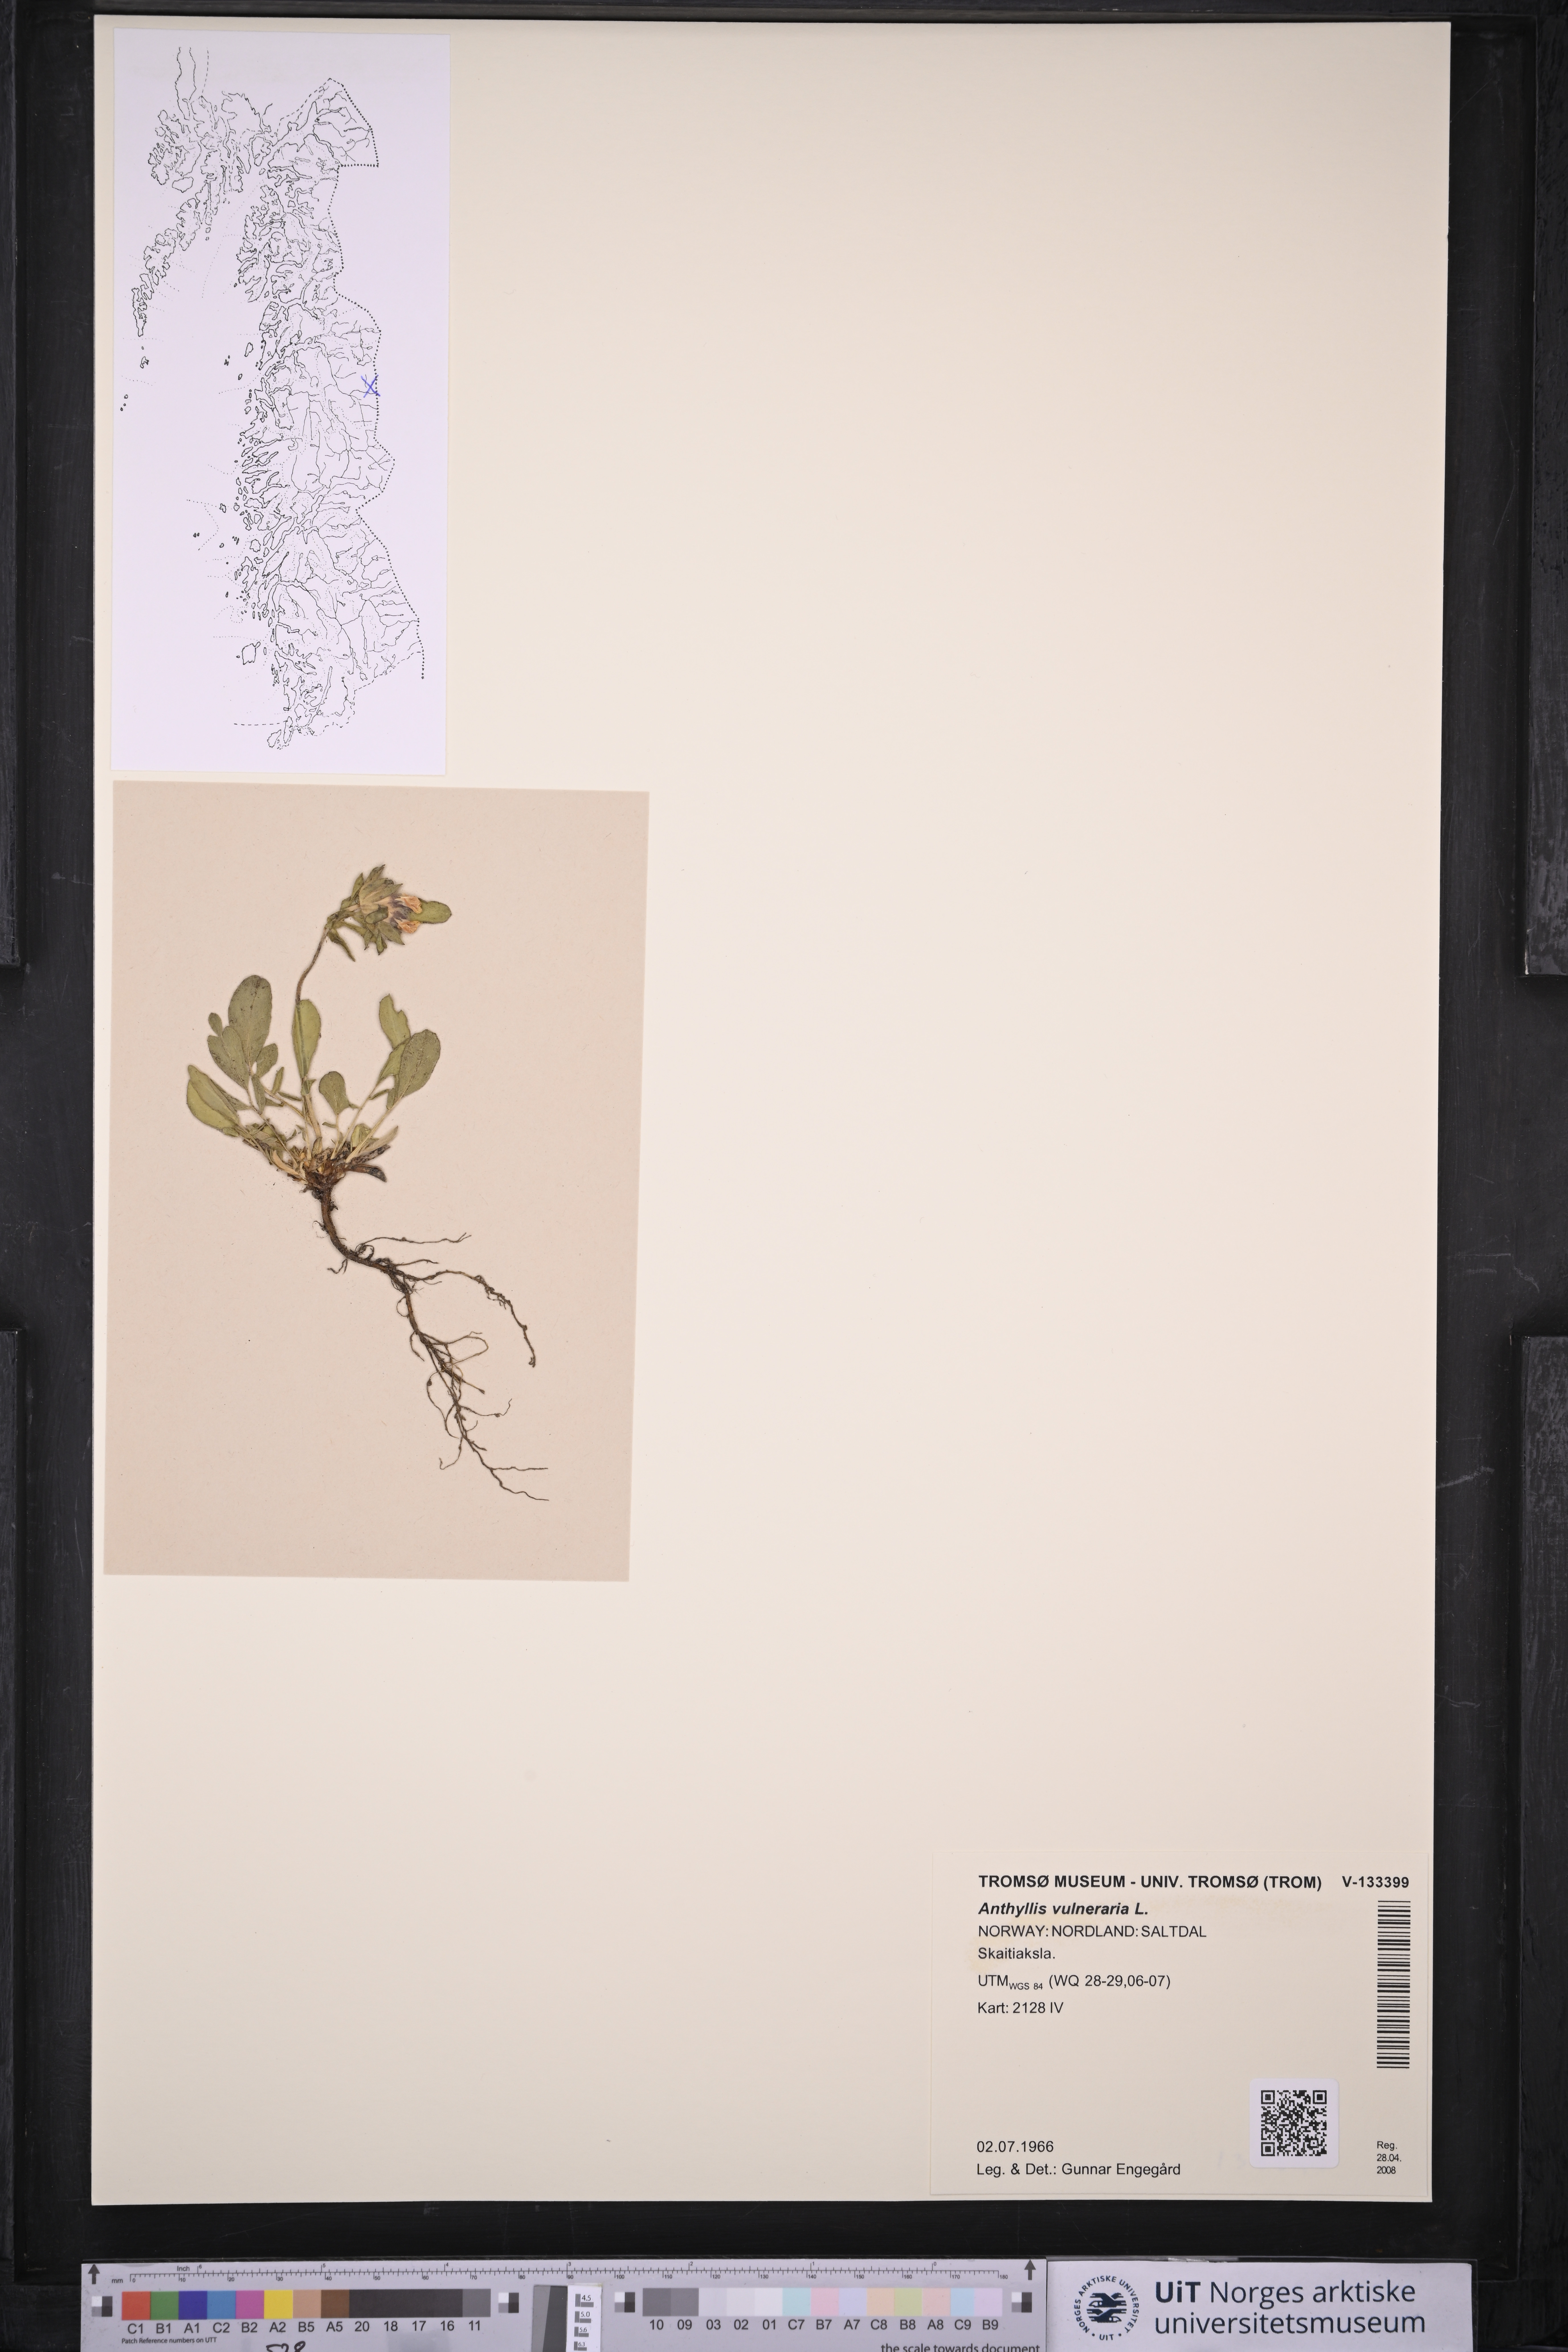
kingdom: Plantae
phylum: Tracheophyta
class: Magnoliopsida
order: Fabales
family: Fabaceae
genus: Anthyllis
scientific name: Anthyllis vulneraria
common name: Kidney vetch
